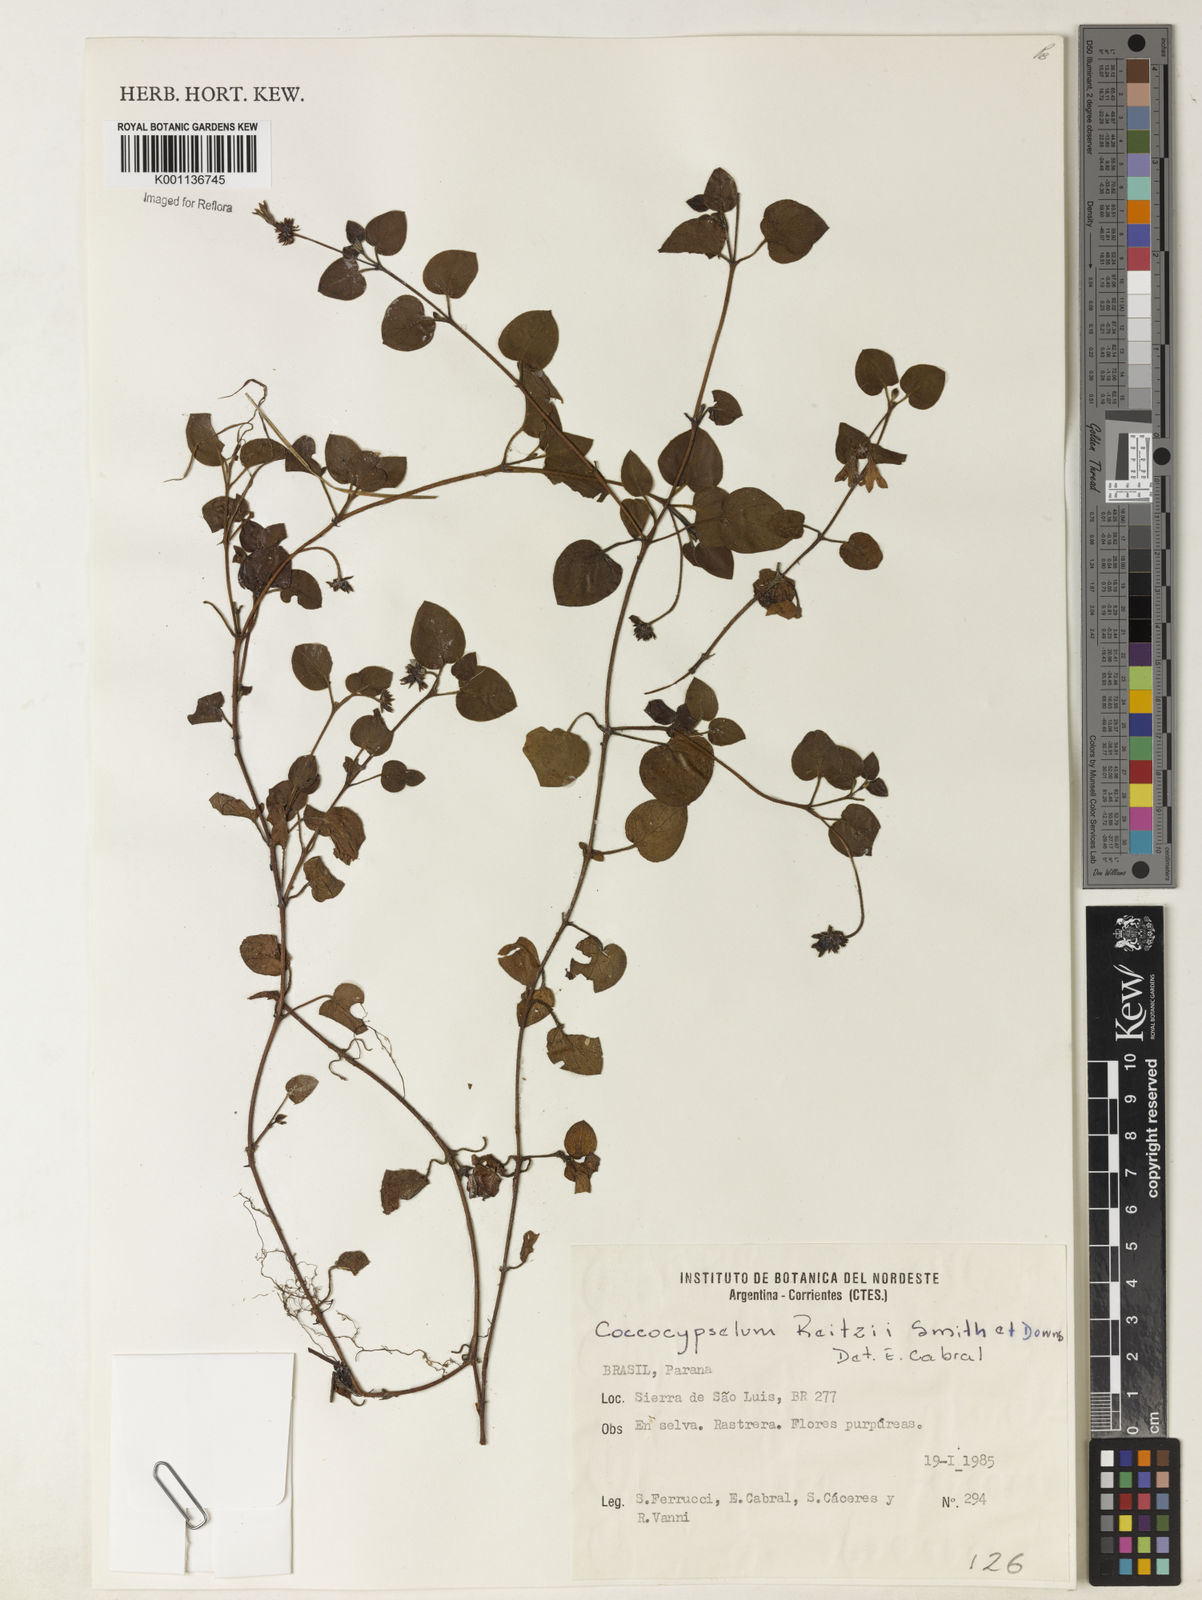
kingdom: Plantae
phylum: Tracheophyta
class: Magnoliopsida
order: Gentianales
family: Rubiaceae
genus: Coccocypselum
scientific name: Coccocypselum pulchellum
